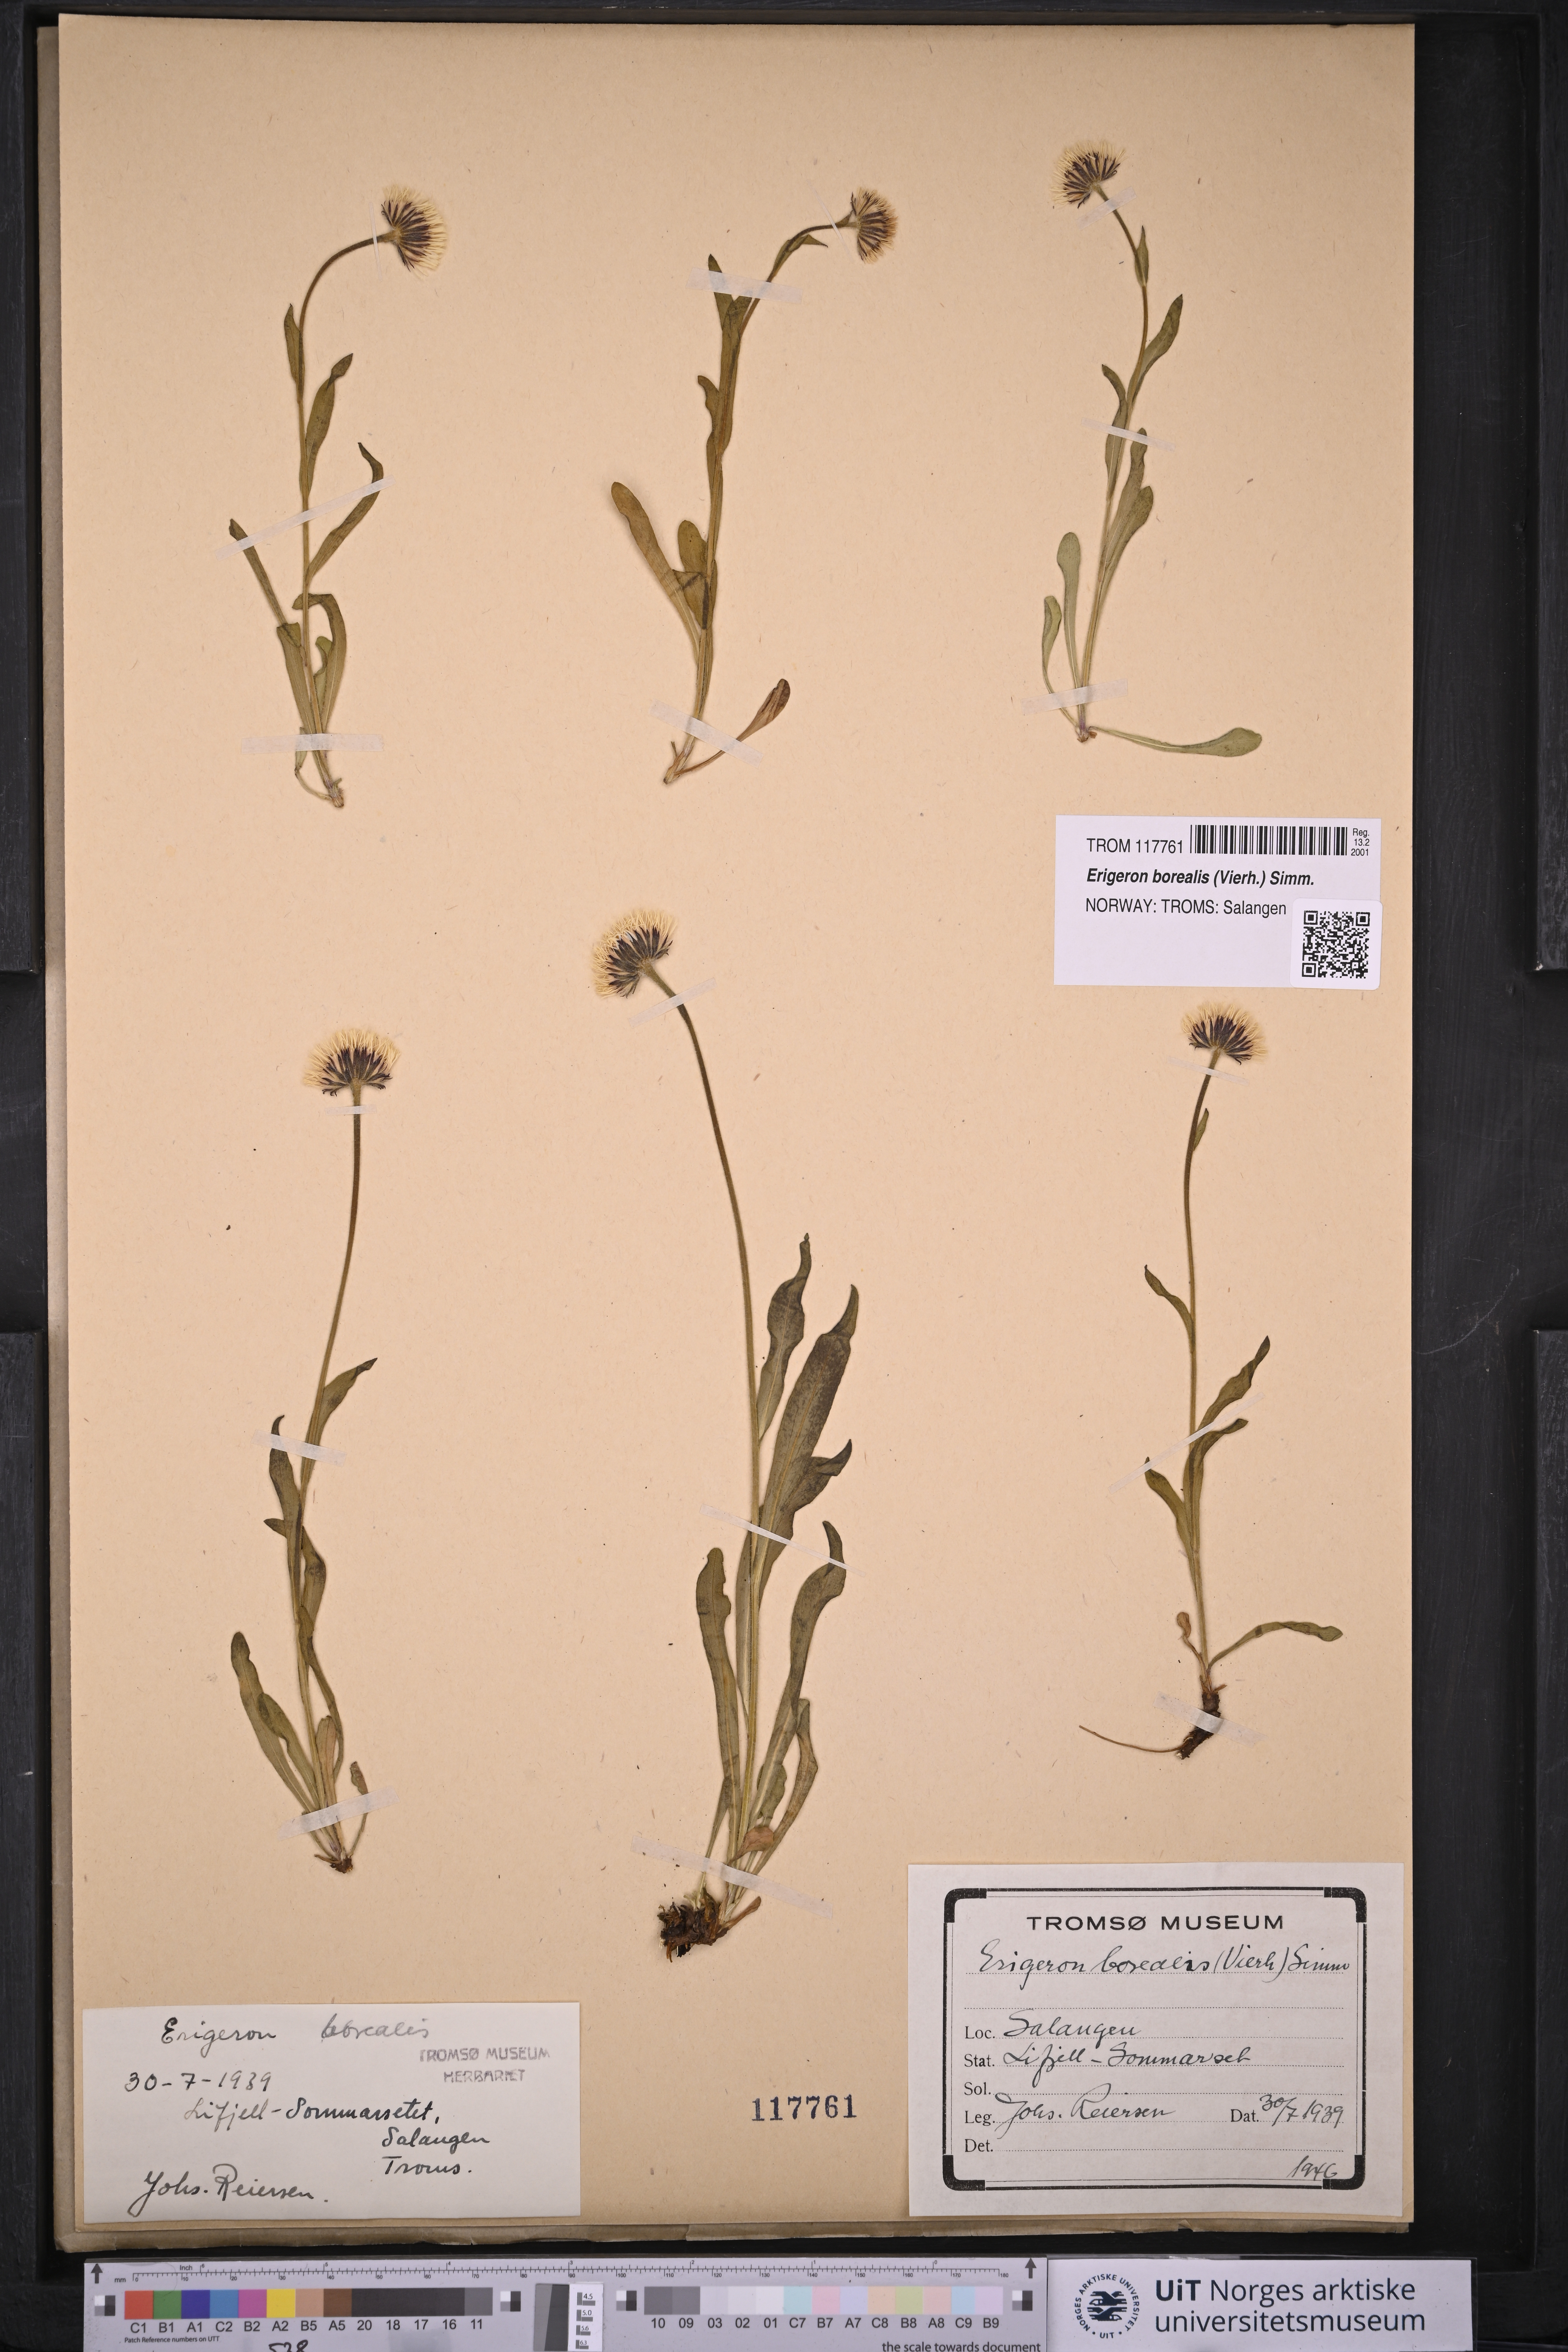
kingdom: Plantae
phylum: Tracheophyta
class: Magnoliopsida
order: Asterales
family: Asteraceae
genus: Erigeron
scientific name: Erigeron borealis
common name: Alpine fleabane
